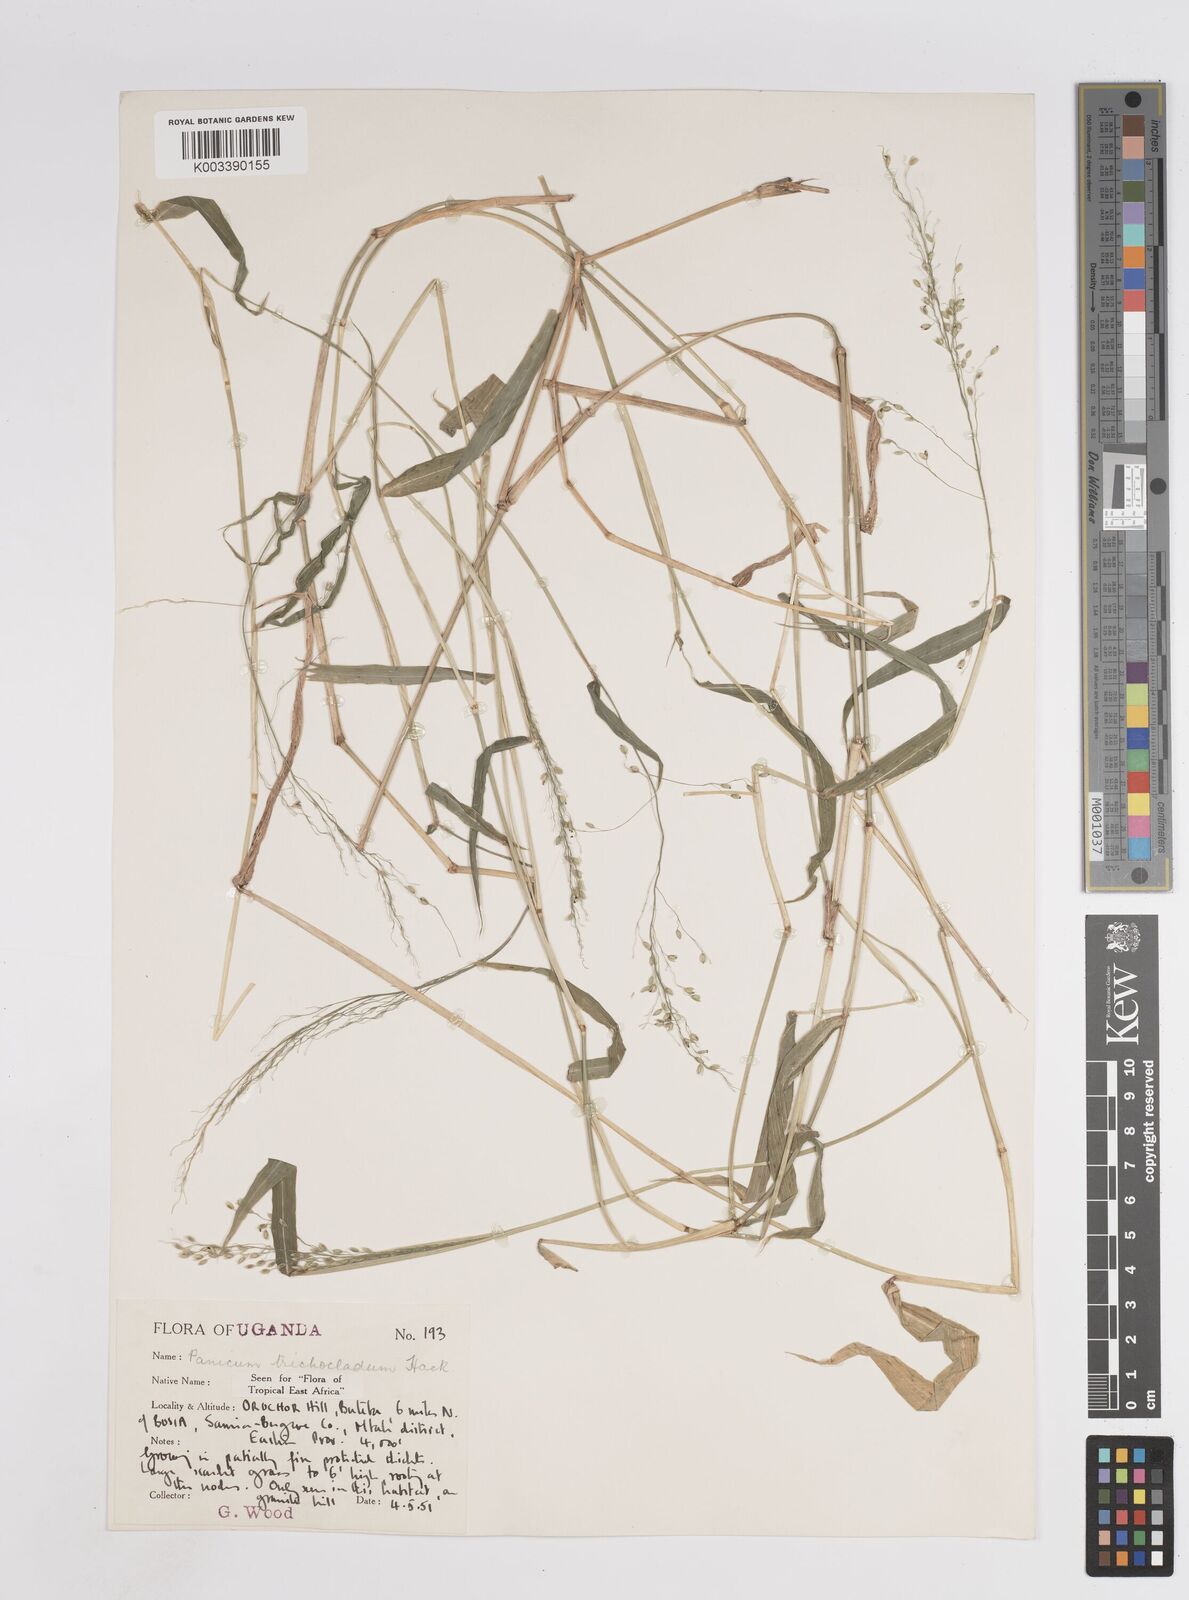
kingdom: Plantae
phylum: Tracheophyta
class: Liliopsida
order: Poales
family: Poaceae
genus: Megathyrsus
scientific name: Megathyrsus maximus
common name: Guineagrass
